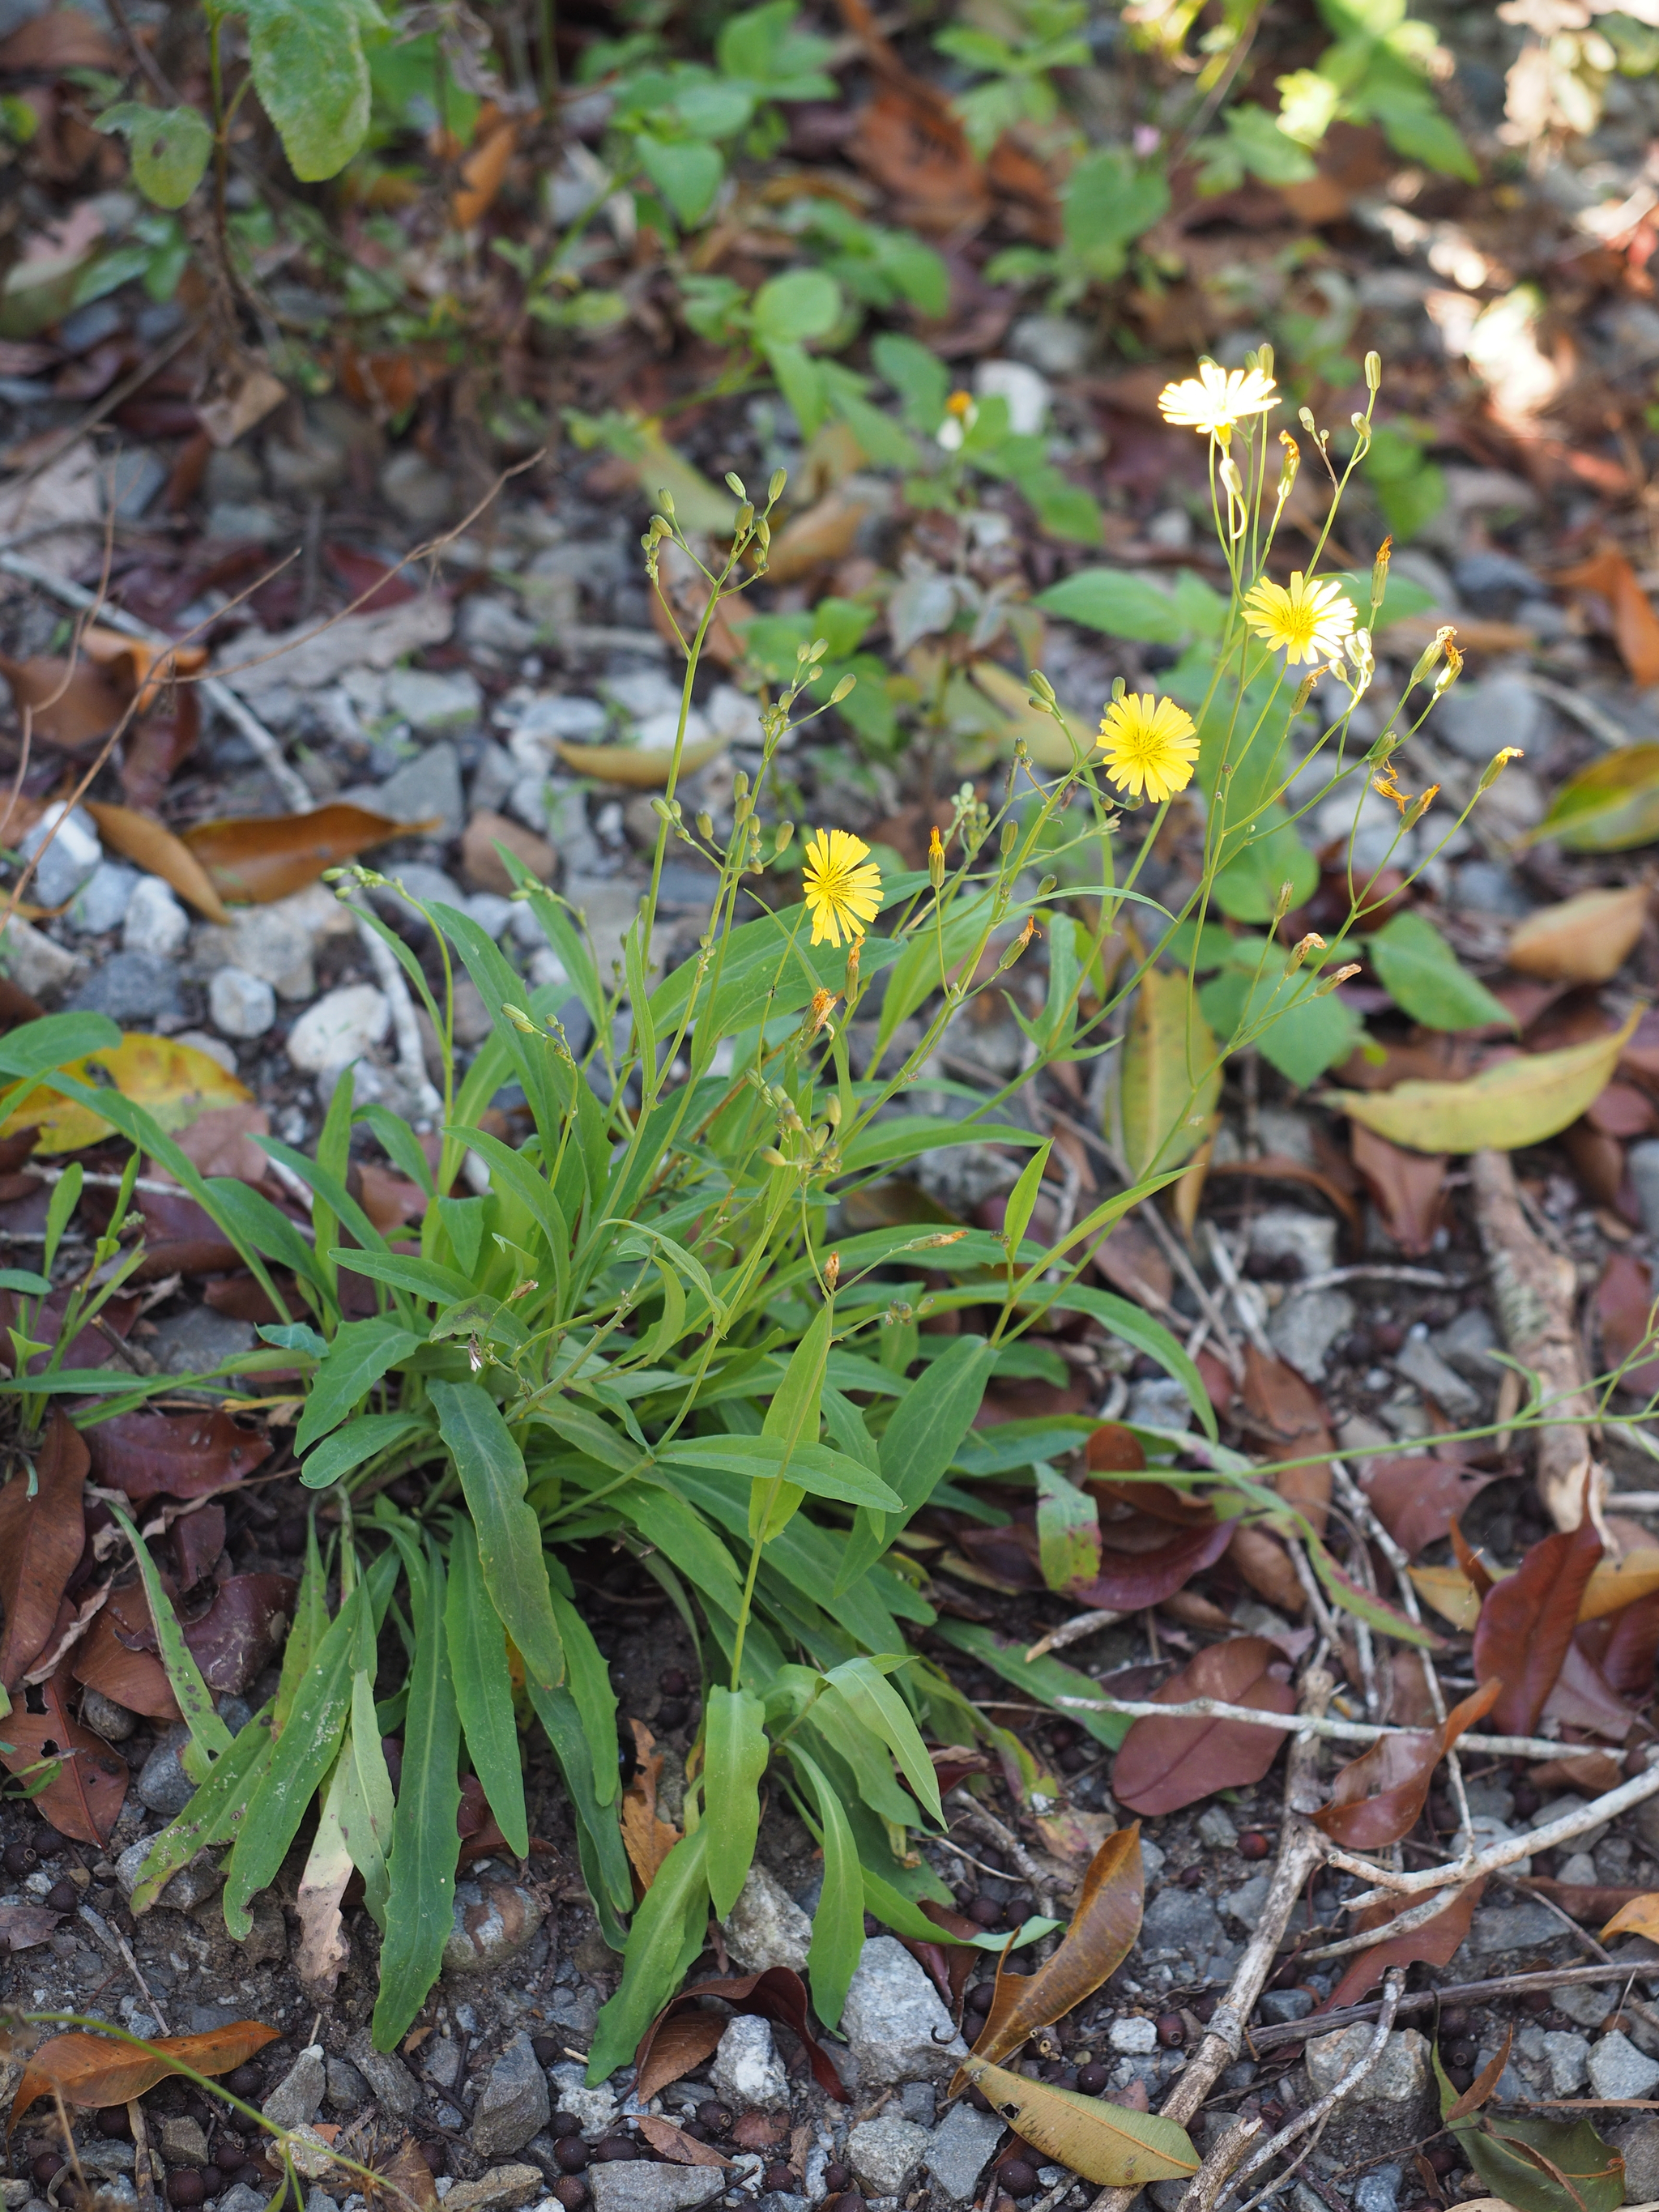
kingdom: Plantae
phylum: Tracheophyta
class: Magnoliopsida
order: Asterales
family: Asteraceae
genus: Ixeris
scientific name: Ixeris chinensis
